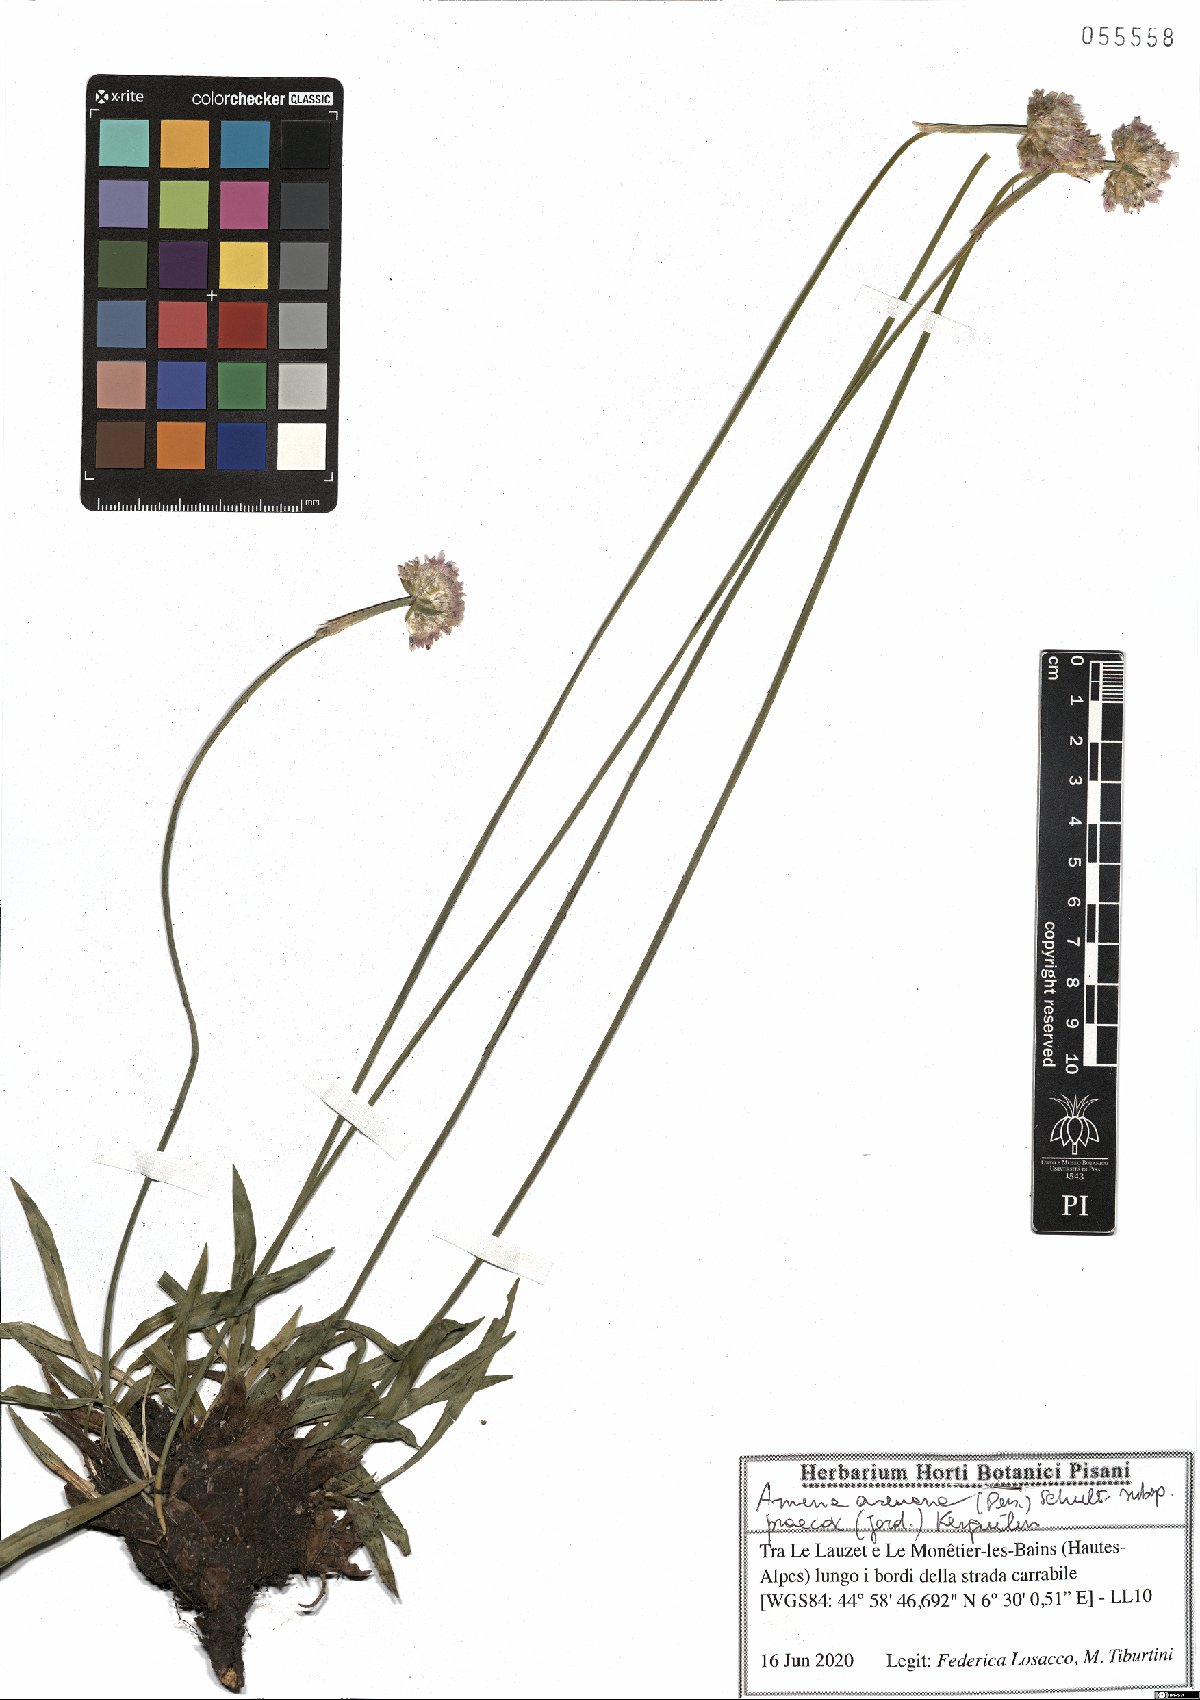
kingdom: Plantae
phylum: Tracheophyta
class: Magnoliopsida
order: Caryophyllales
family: Plumbaginaceae
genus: Armeria
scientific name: Armeria arenaria
